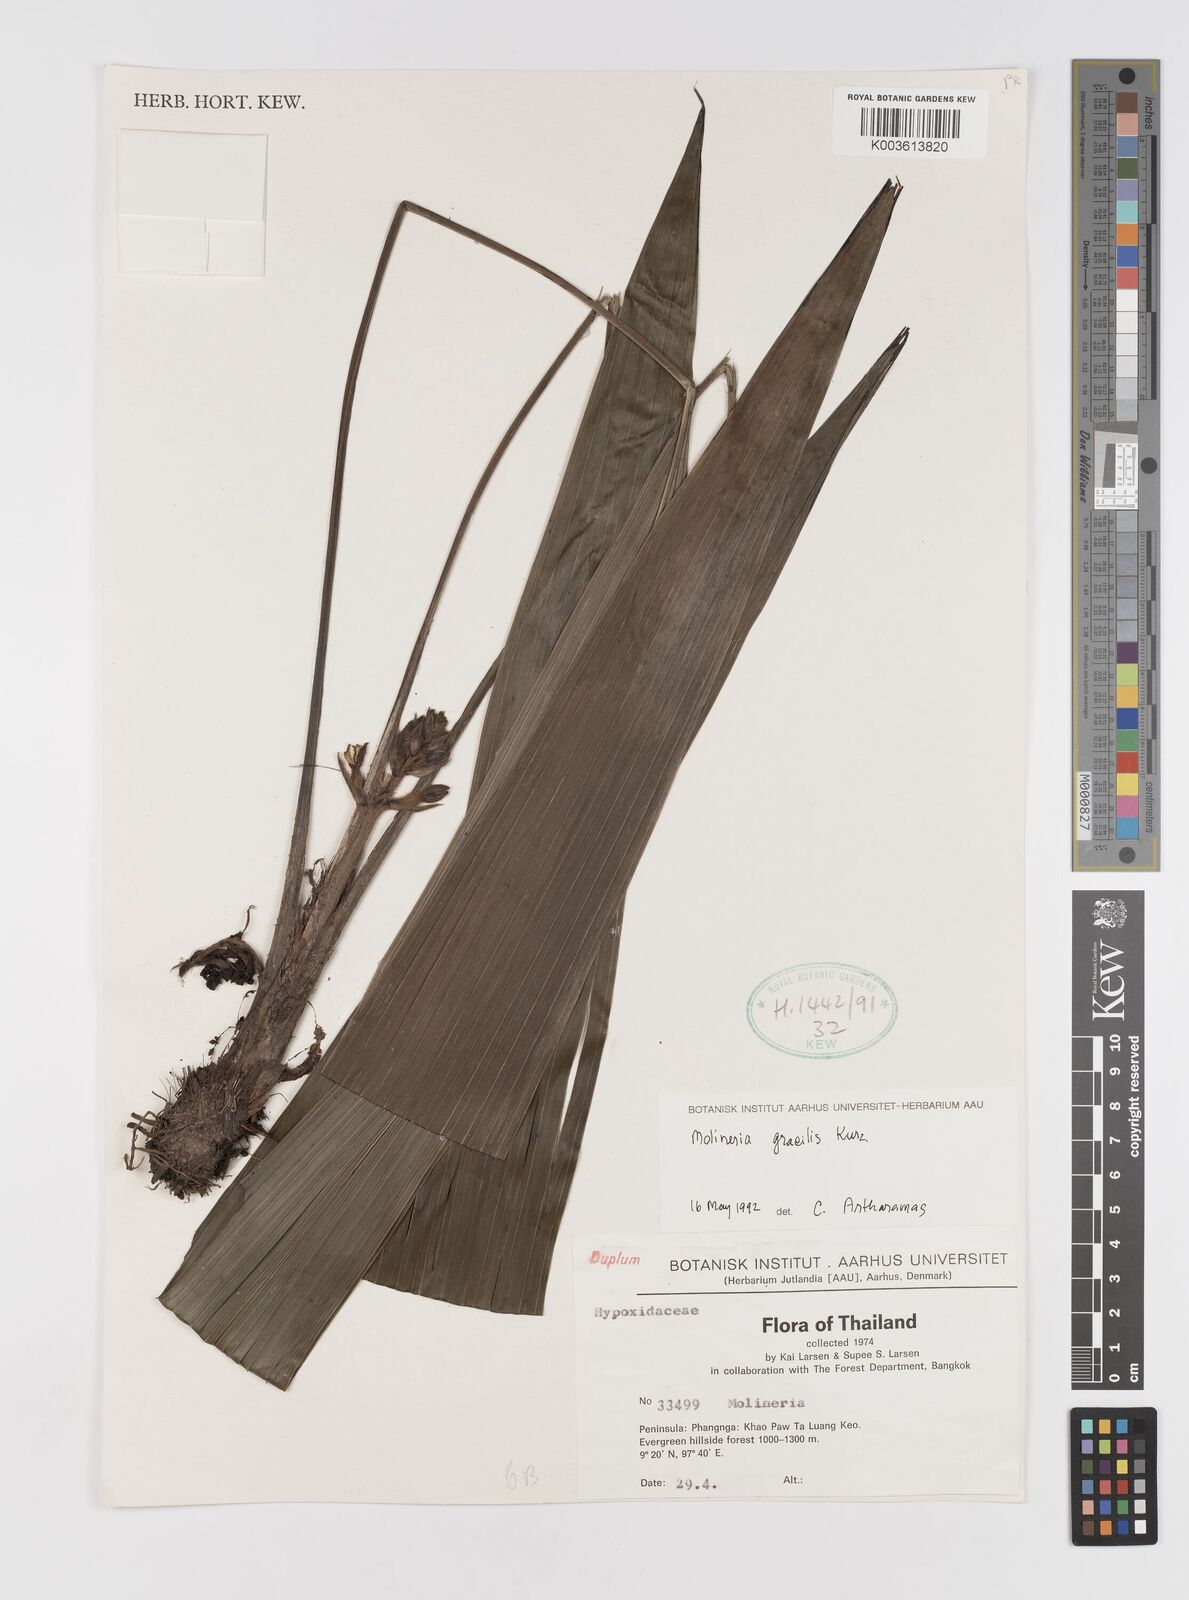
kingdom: Plantae
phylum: Tracheophyta
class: Liliopsida
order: Asparagales
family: Hypoxidaceae
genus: Curculigo
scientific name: Curculigo gracilis
